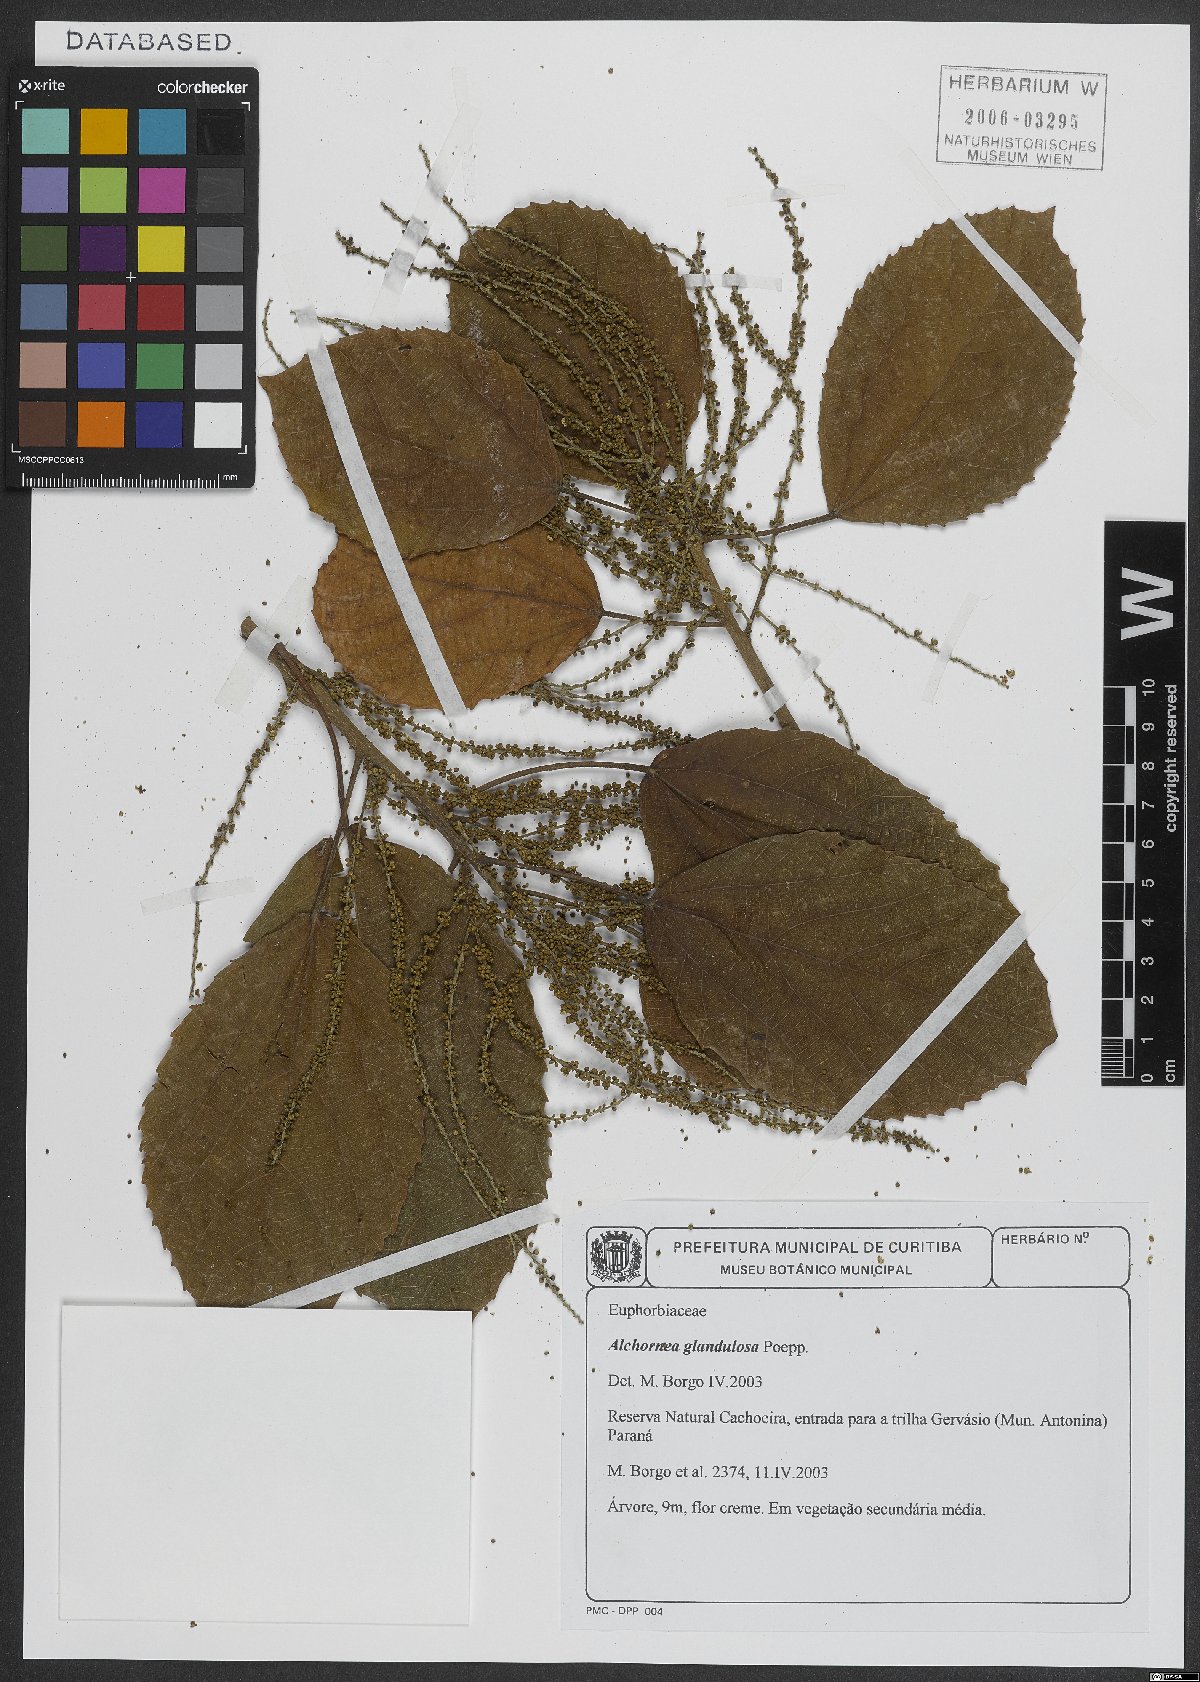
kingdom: Plantae
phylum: Tracheophyta
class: Magnoliopsida
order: Malpighiales
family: Euphorbiaceae
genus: Alchornea
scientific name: Alchornea glandulosa
